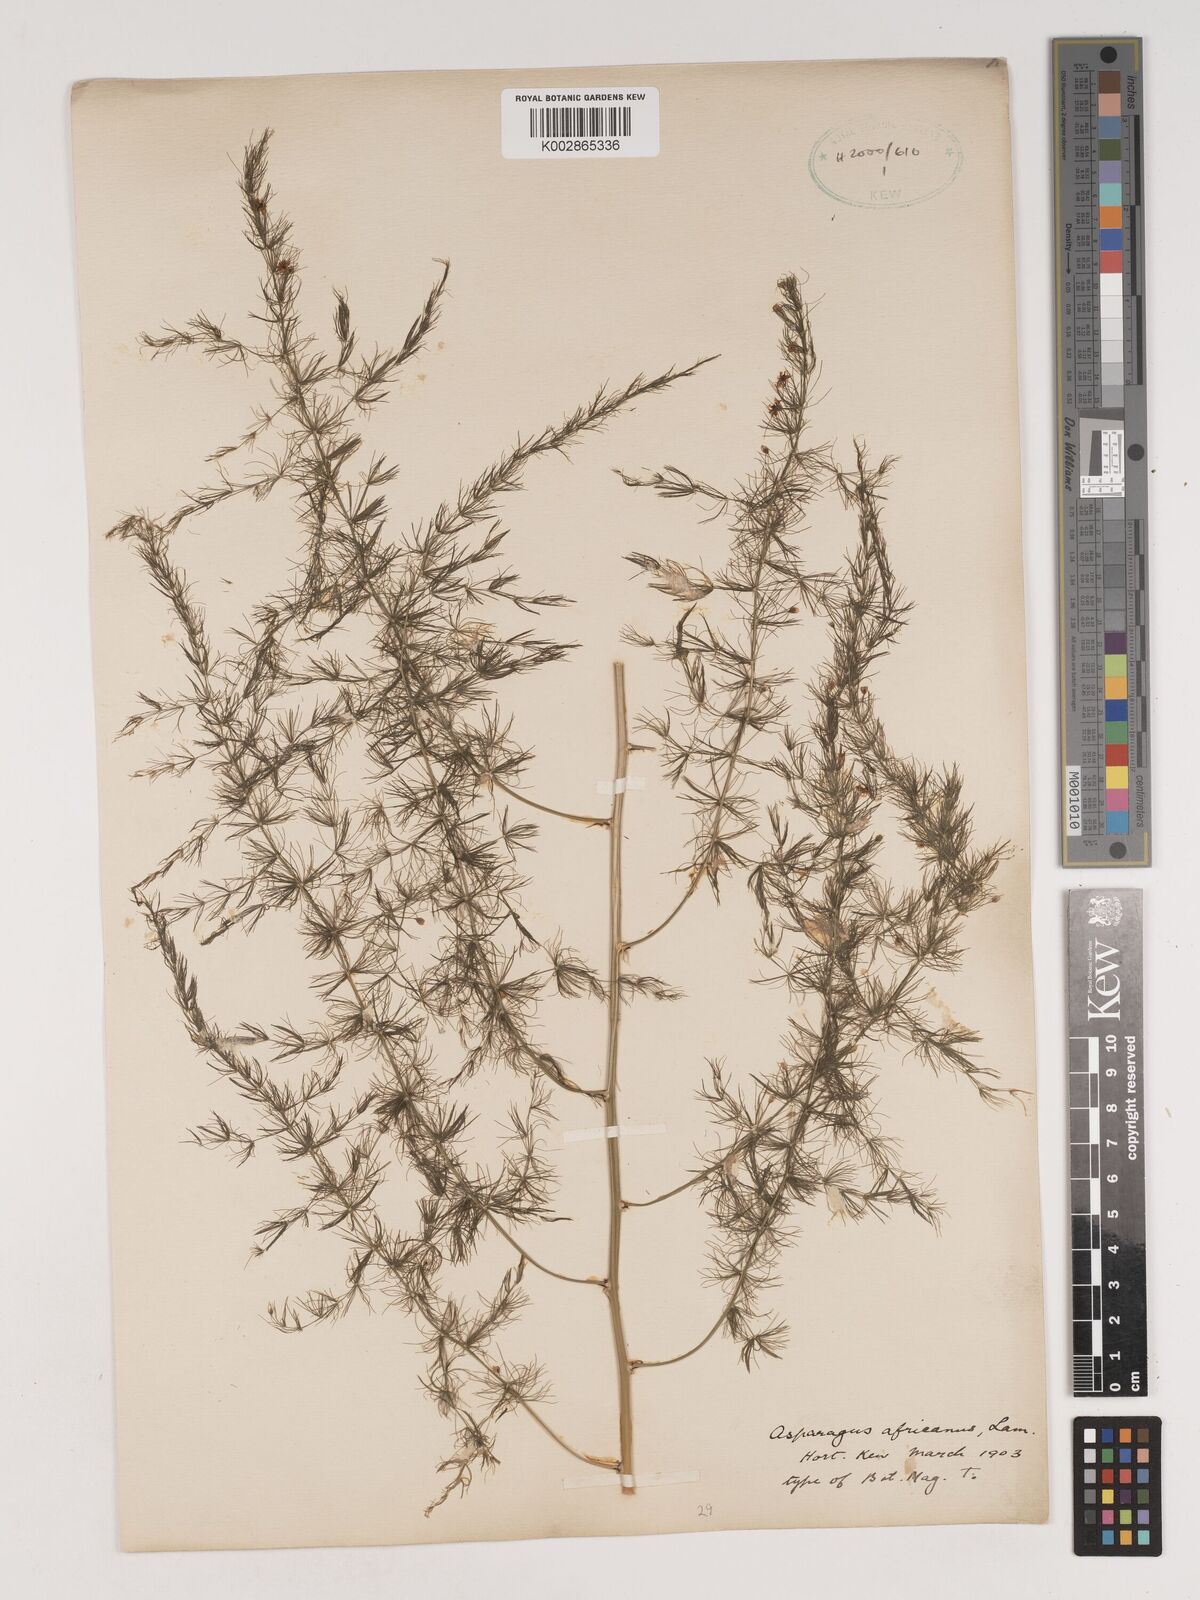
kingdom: Plantae
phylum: Tracheophyta
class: Liliopsida
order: Asparagales
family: Asparagaceae
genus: Asparagus
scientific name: Asparagus
